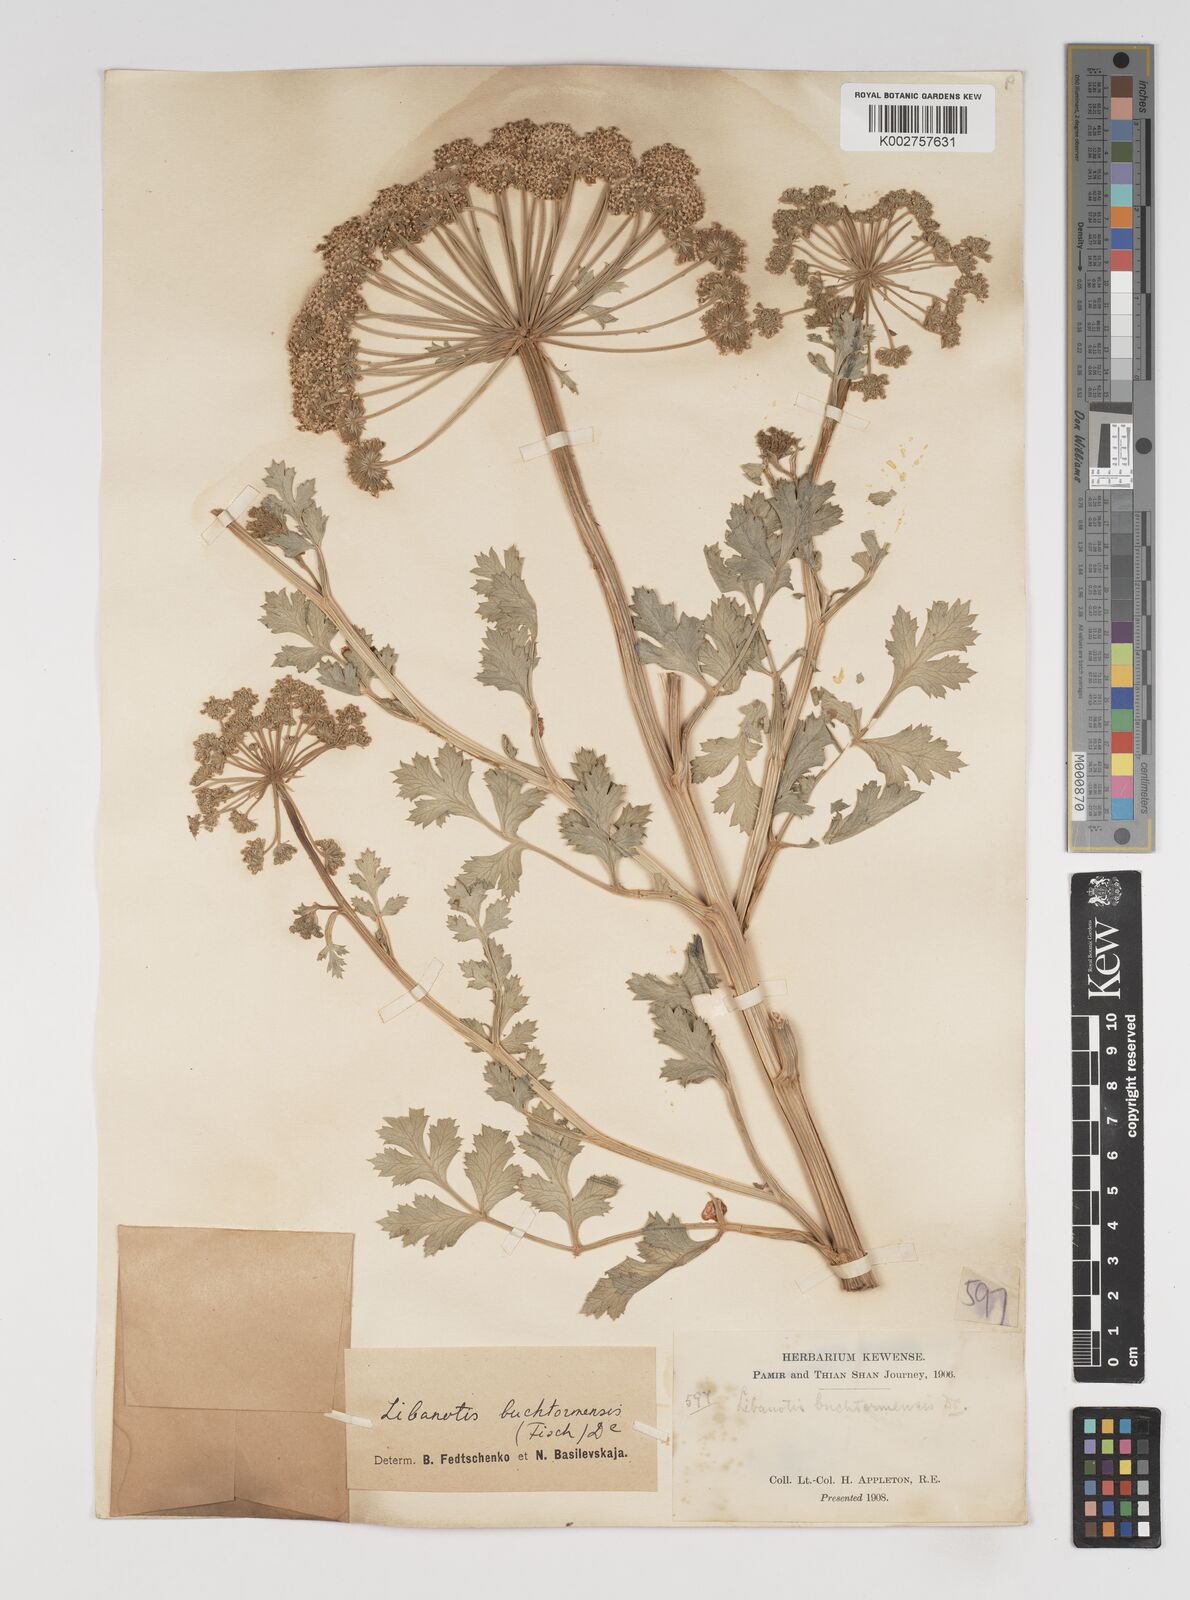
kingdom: Plantae
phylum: Tracheophyta
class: Magnoliopsida
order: Apiales
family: Apiaceae
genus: Seseli
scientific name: Seseli buchtormense
